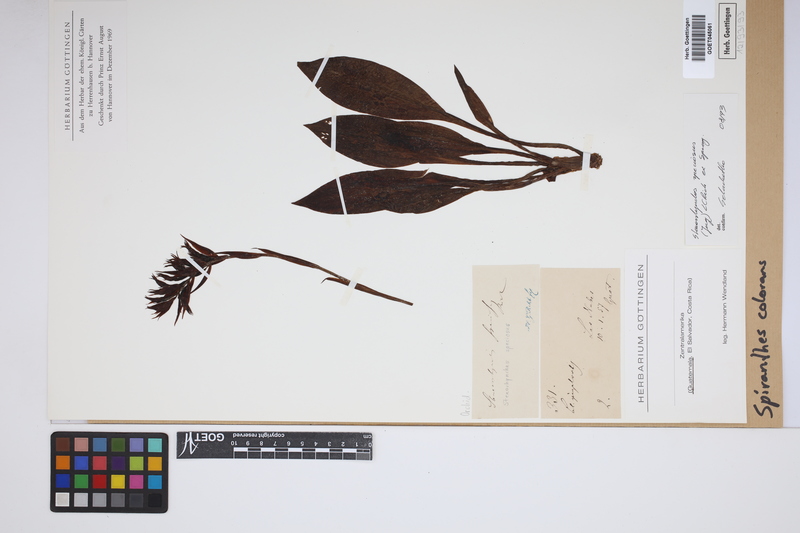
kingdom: Plantae
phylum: Tracheophyta
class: Liliopsida
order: Asparagales
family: Orchidaceae
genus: Stenorrhynchos
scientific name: Stenorrhynchos speciosum
